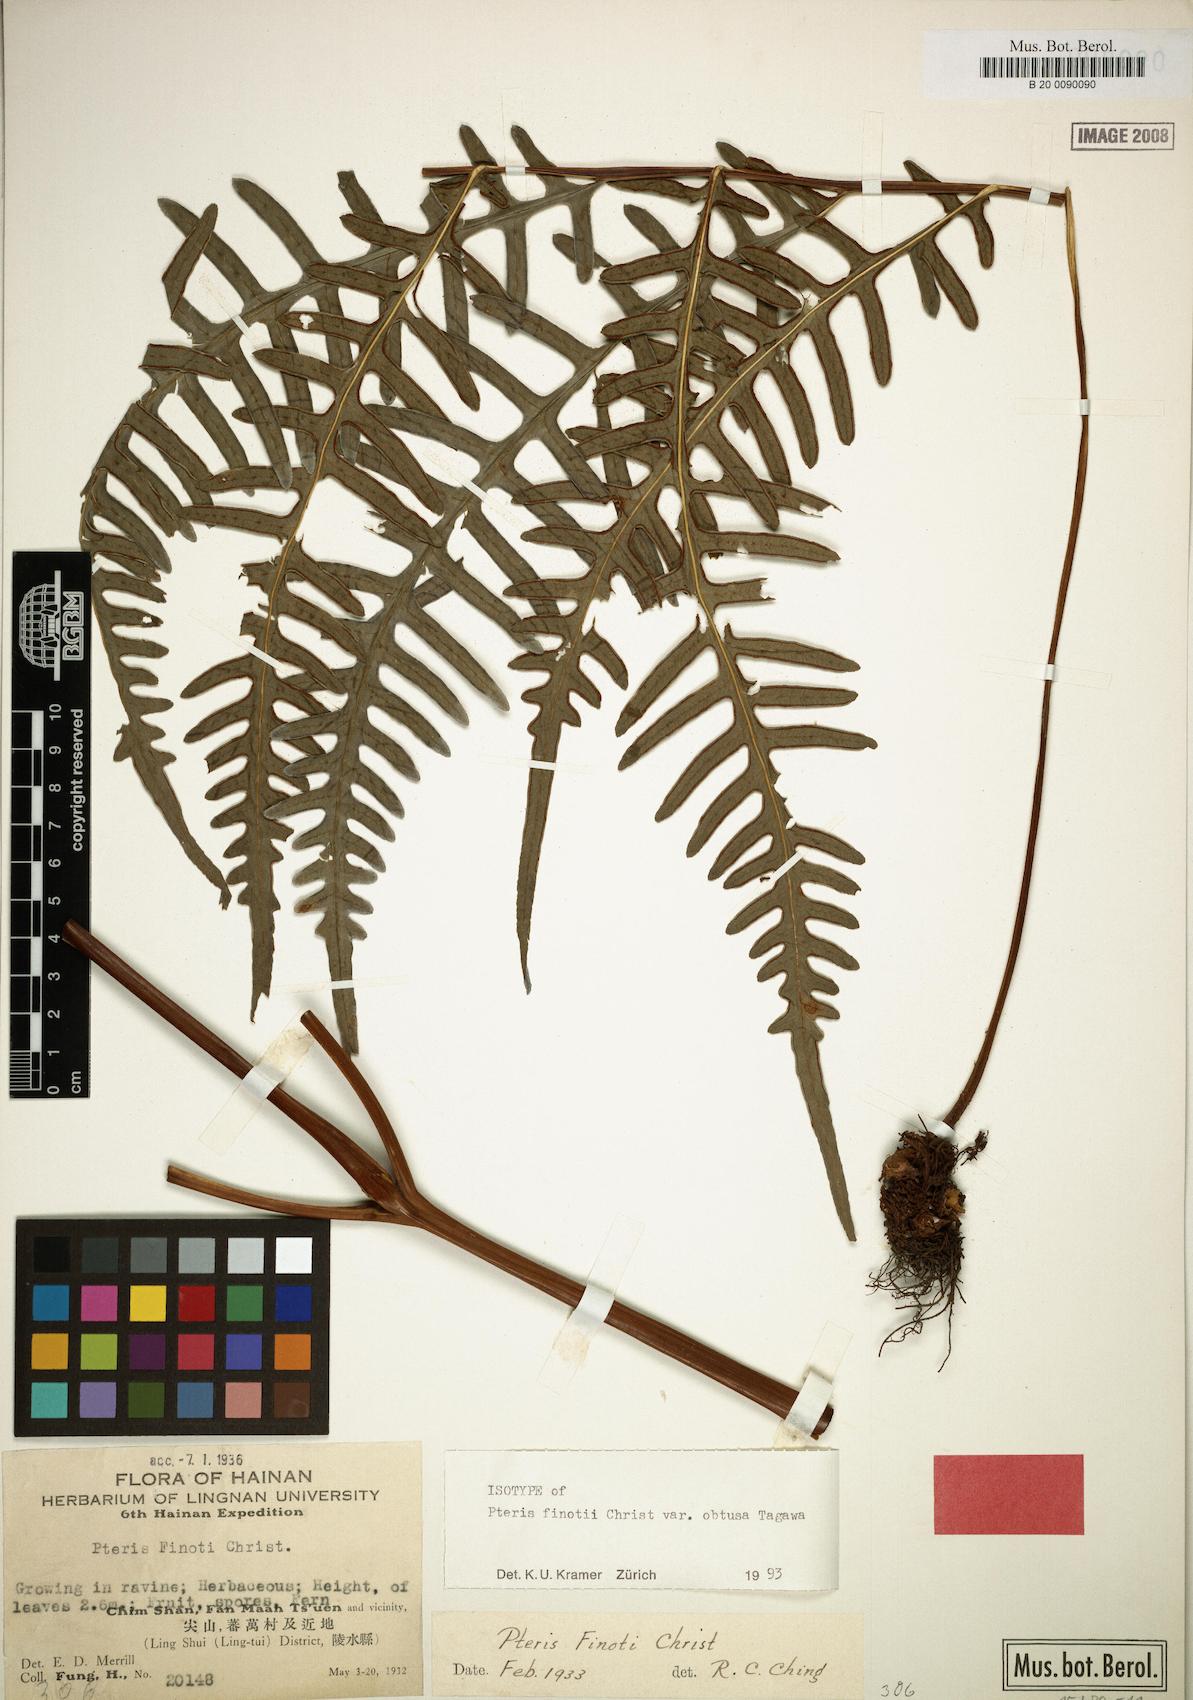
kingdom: Plantae
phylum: Tracheophyta
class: Polypodiopsida
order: Polypodiales
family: Pteridaceae
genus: Pteris
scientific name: Pteris finotii
